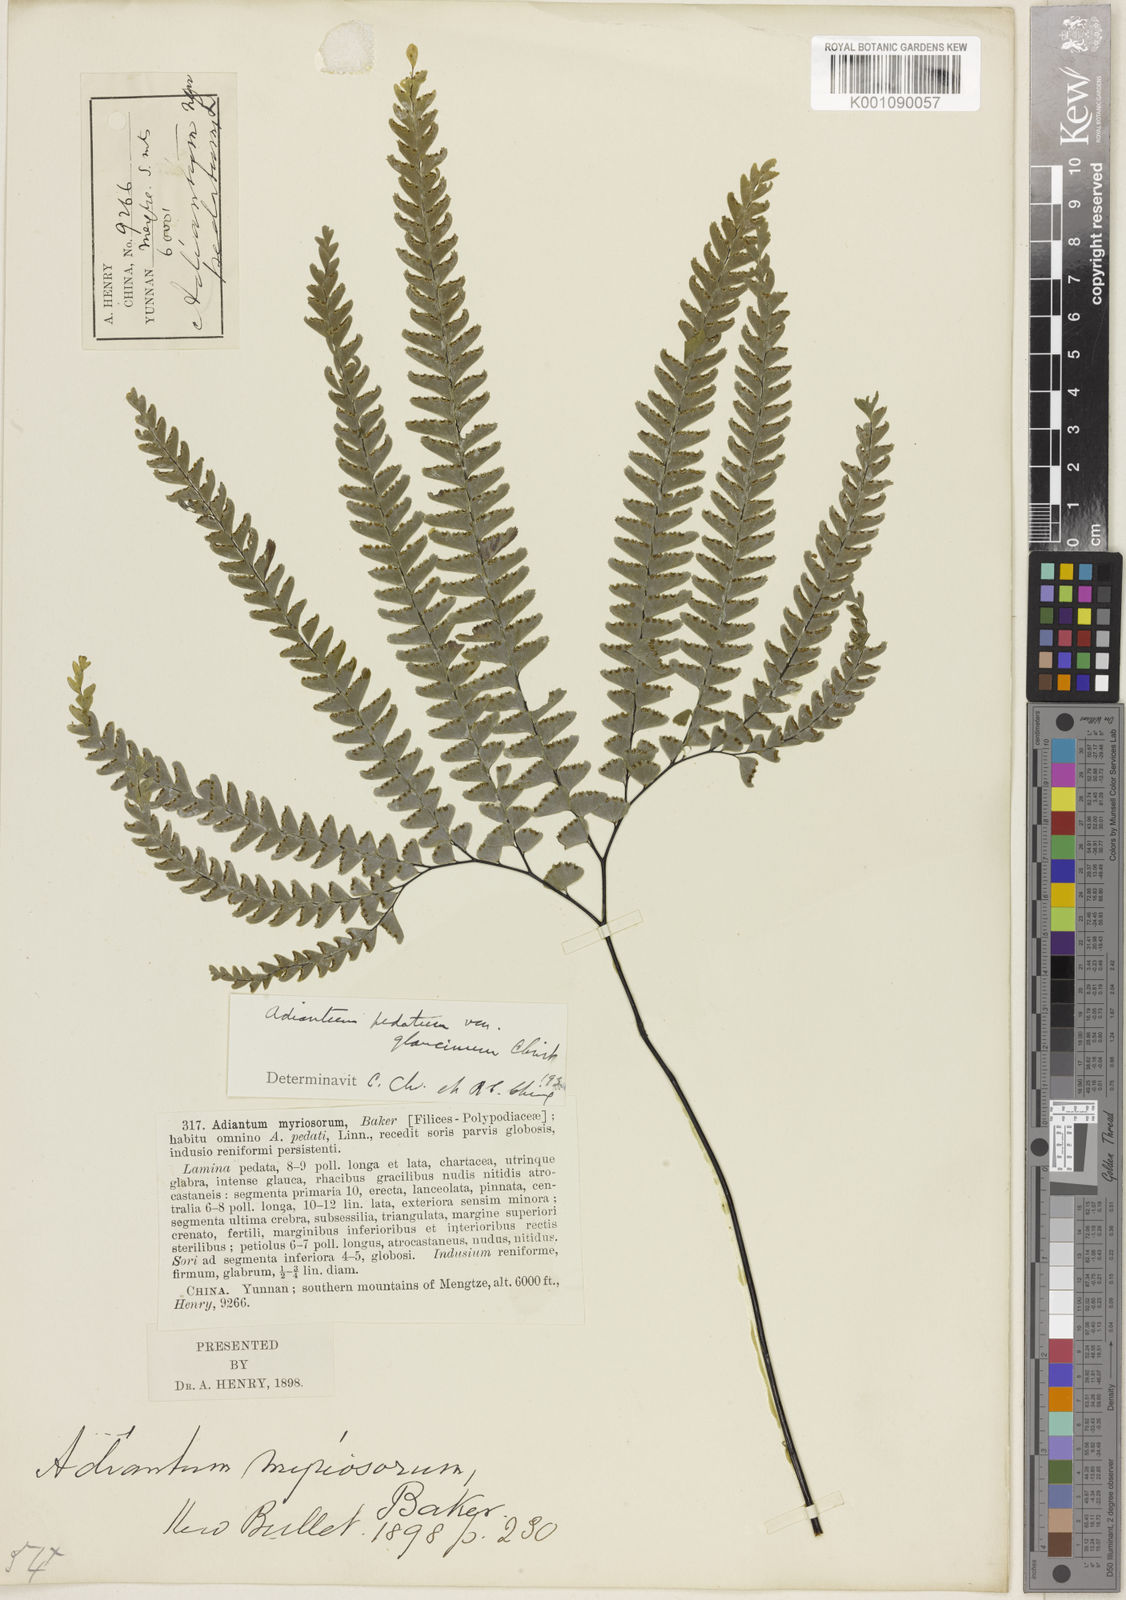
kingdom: Plantae
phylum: Tracheophyta
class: Polypodiopsida
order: Polypodiales
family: Pteridaceae
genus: Adiantum
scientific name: Adiantum pedatum
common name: Five-finger fern
